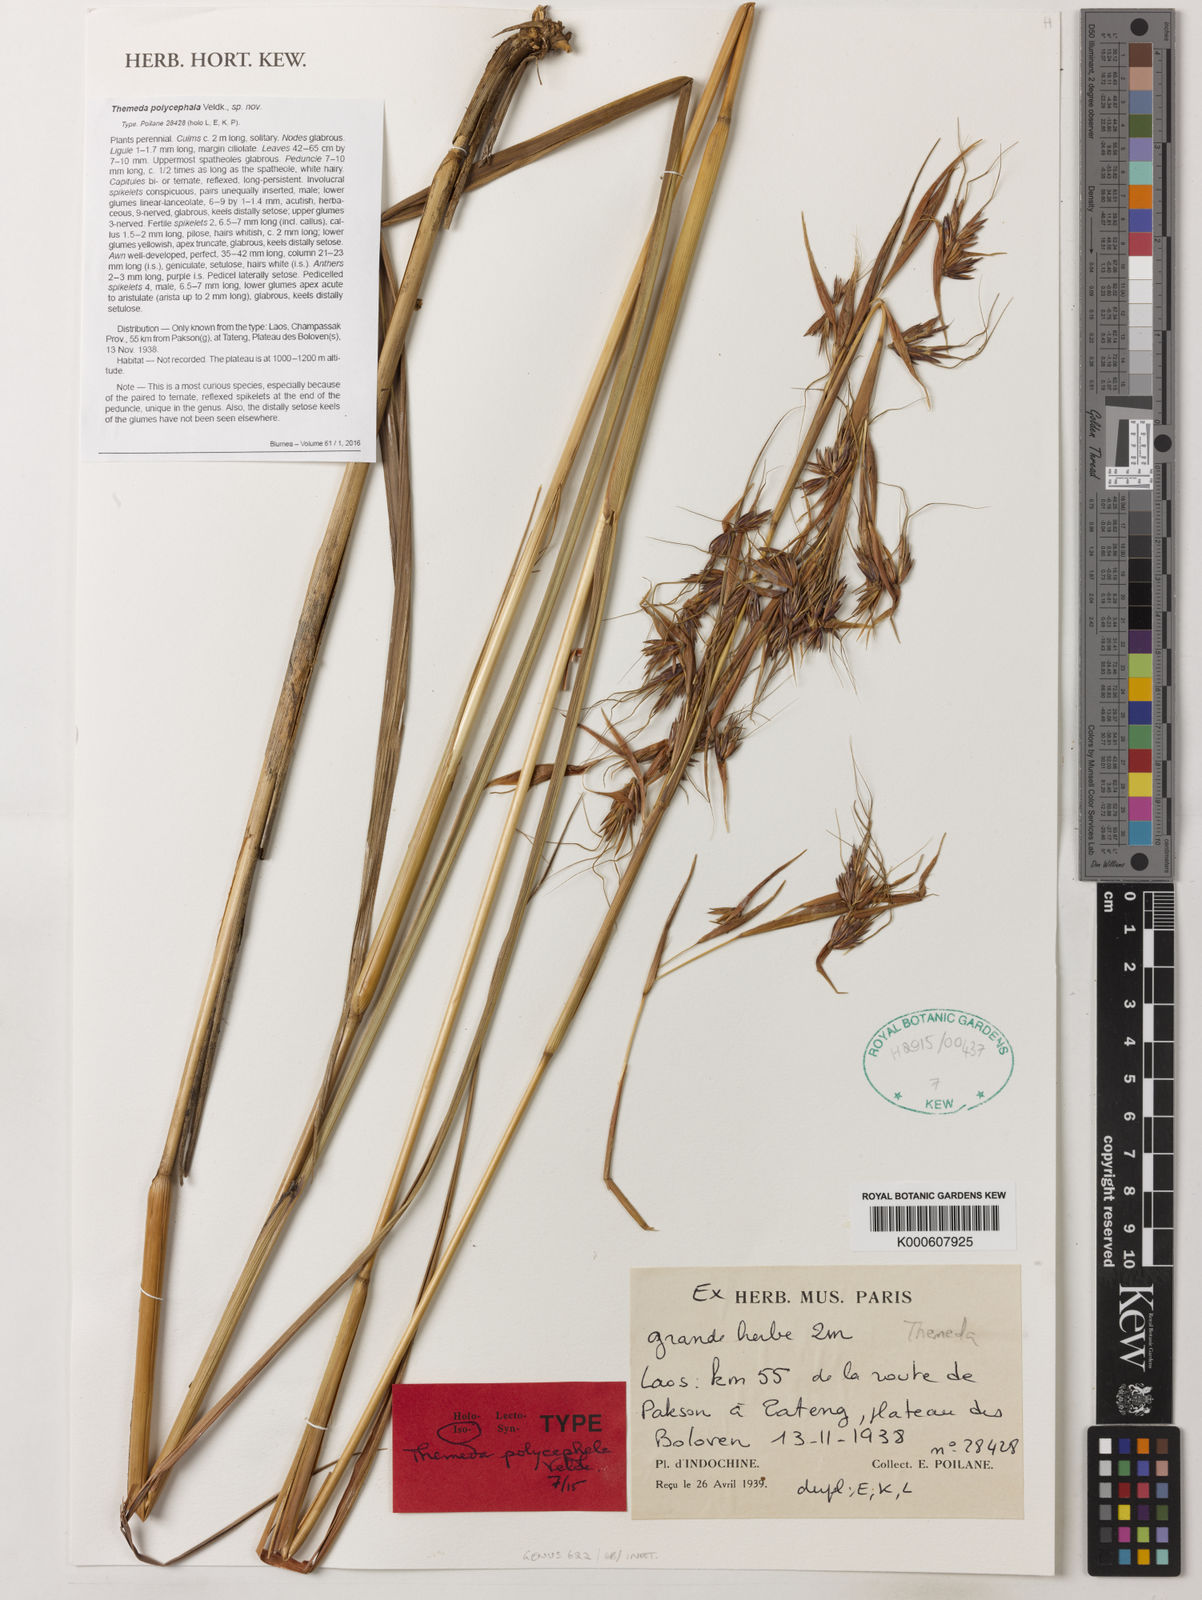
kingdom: Plantae
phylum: Tracheophyta
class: Liliopsida
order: Poales
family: Poaceae
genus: Themeda
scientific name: Themeda polycephala
